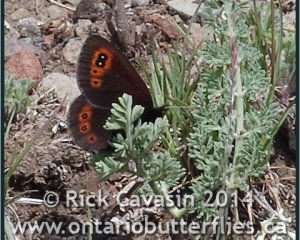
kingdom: Animalia
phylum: Arthropoda
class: Insecta
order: Lepidoptera
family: Nymphalidae
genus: Erebia
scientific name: Erebia epipsodea
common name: Common Alpine
